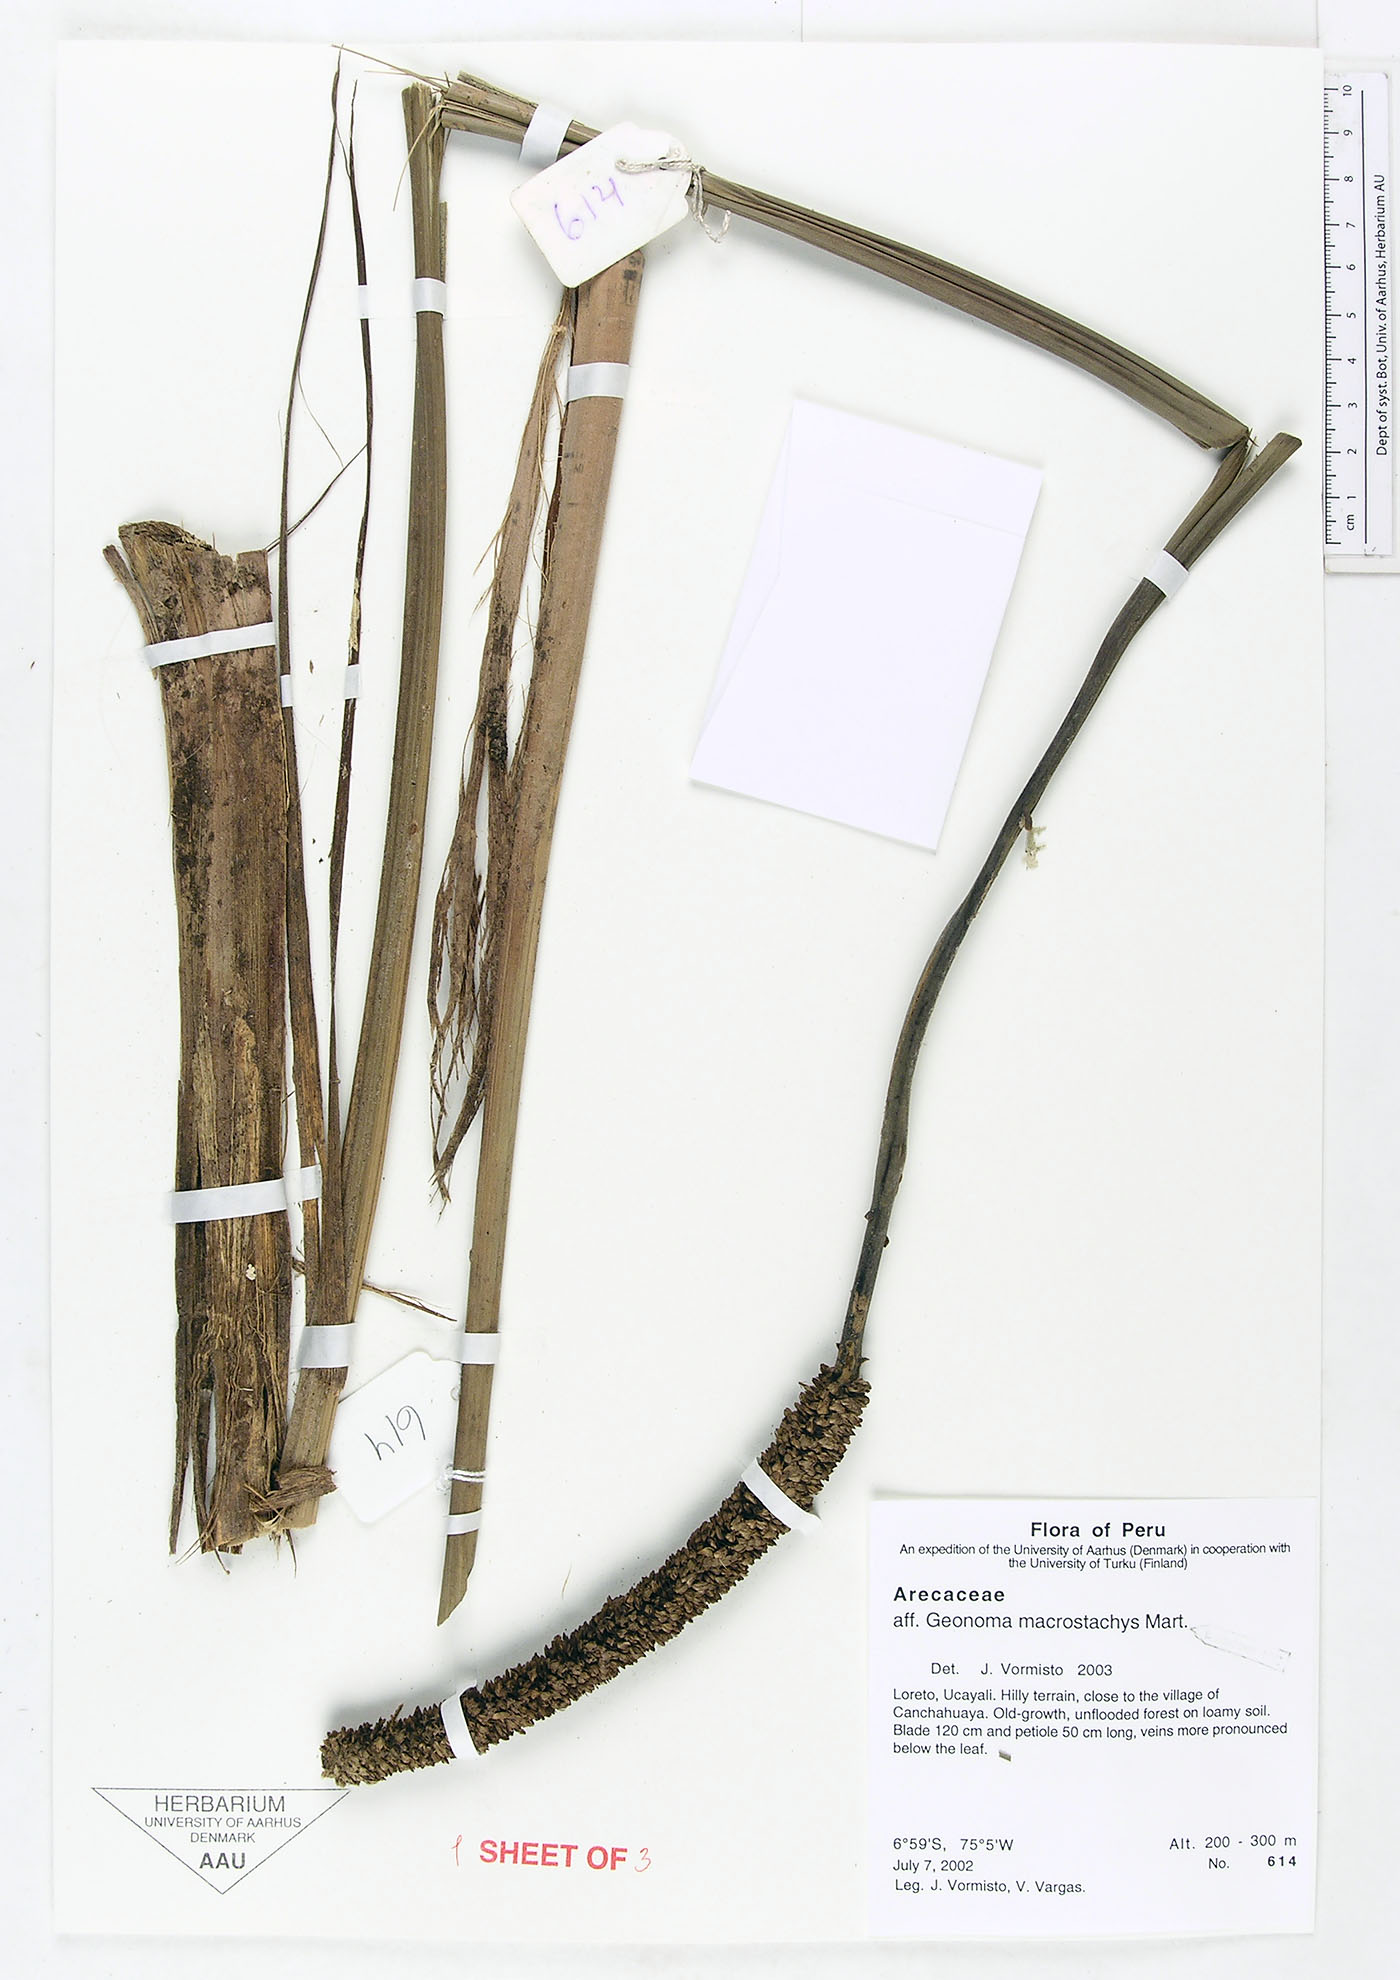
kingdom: Plantae
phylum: Tracheophyta
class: Liliopsida
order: Arecales
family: Arecaceae
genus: Geonoma
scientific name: Geonoma macrostachys
